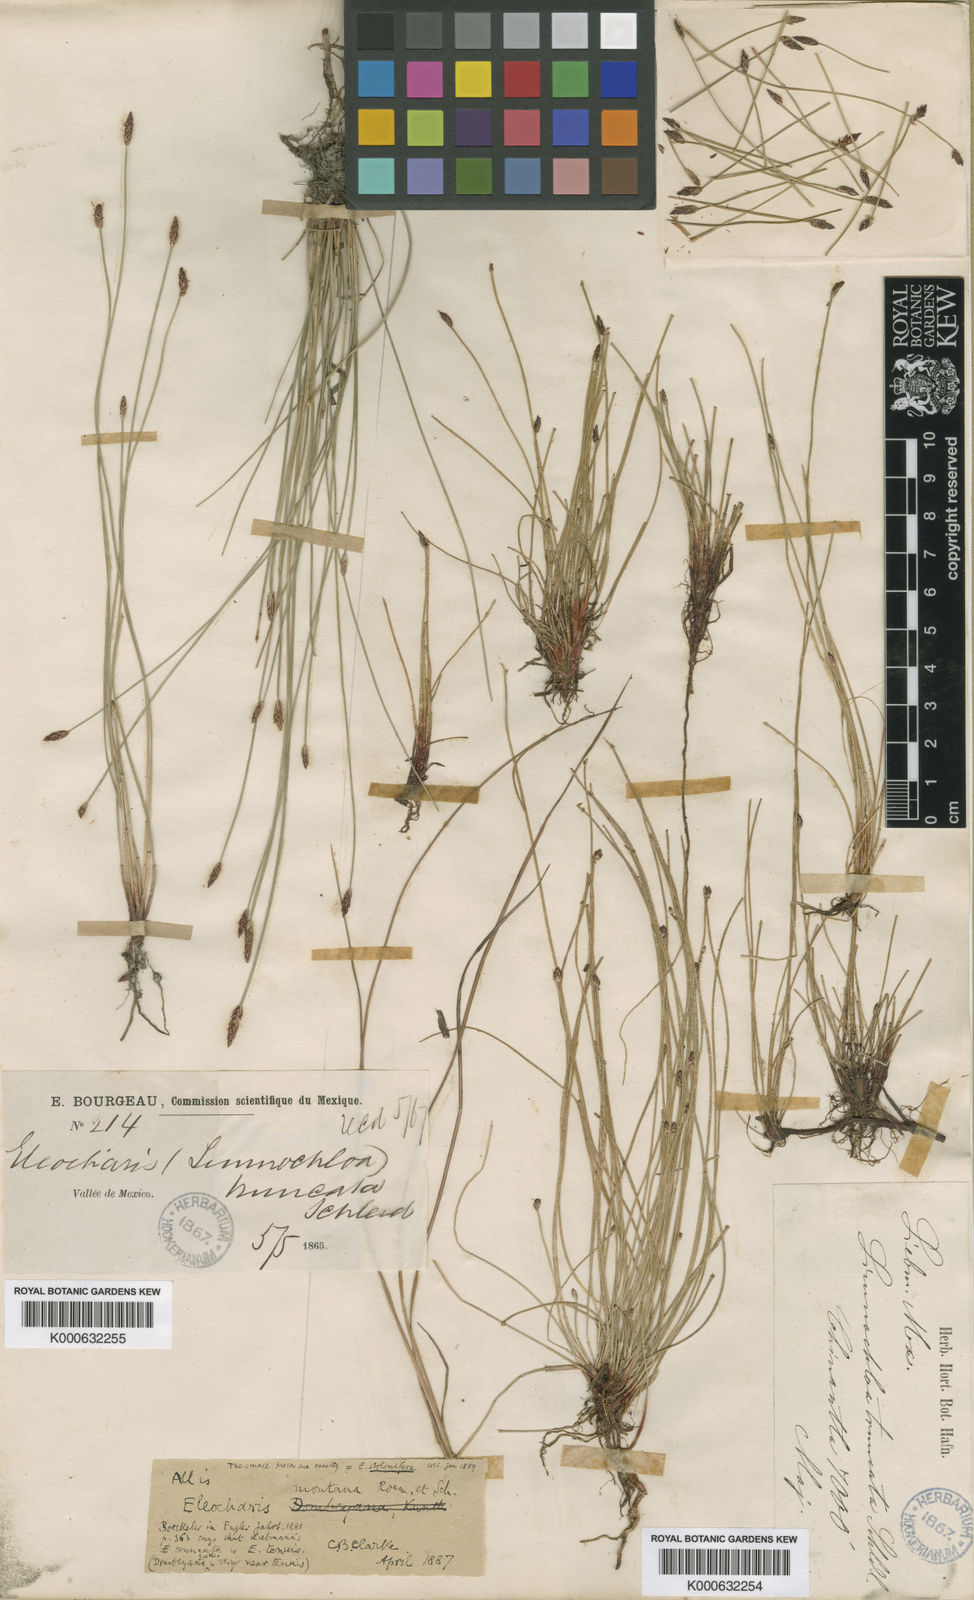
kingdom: Plantae
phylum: Tracheophyta
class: Liliopsida
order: Poales
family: Cyperaceae
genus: Eleocharis
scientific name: Eleocharis montana
